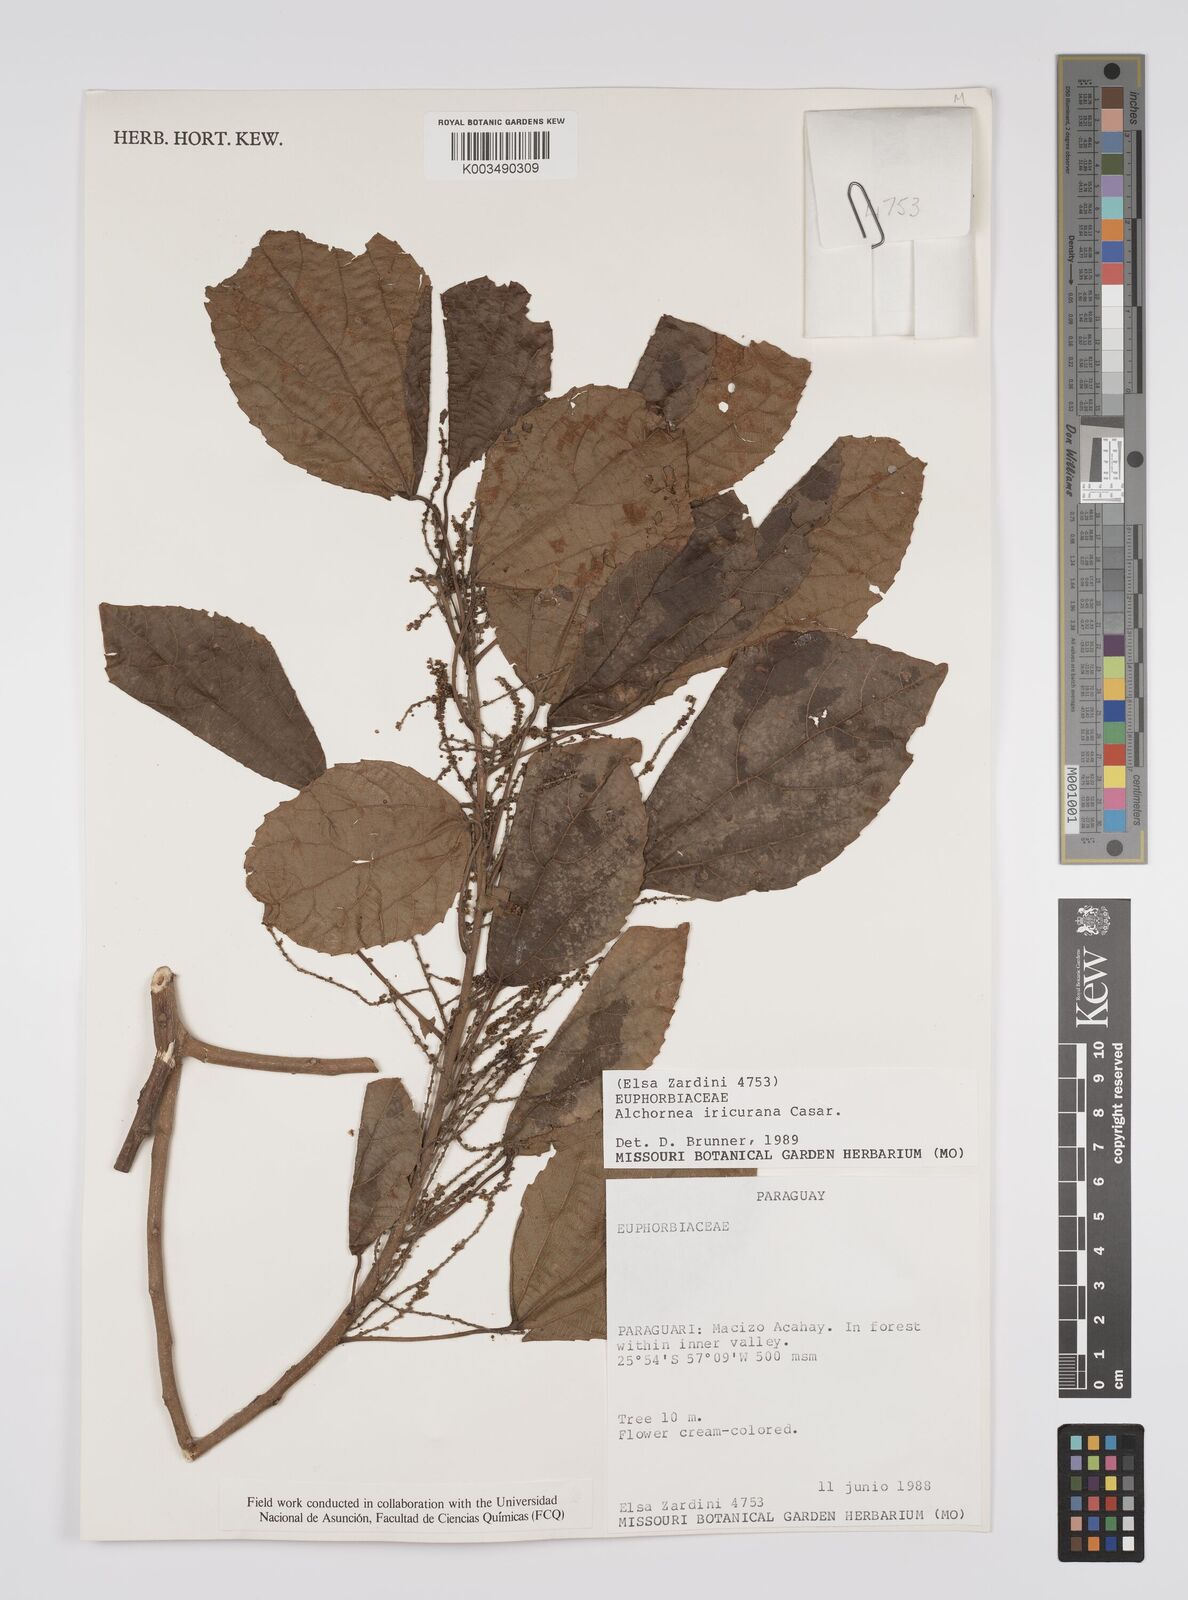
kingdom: Plantae
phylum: Tracheophyta
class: Magnoliopsida
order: Malpighiales
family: Euphorbiaceae
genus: Alchornea
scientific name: Alchornea glandulosa
